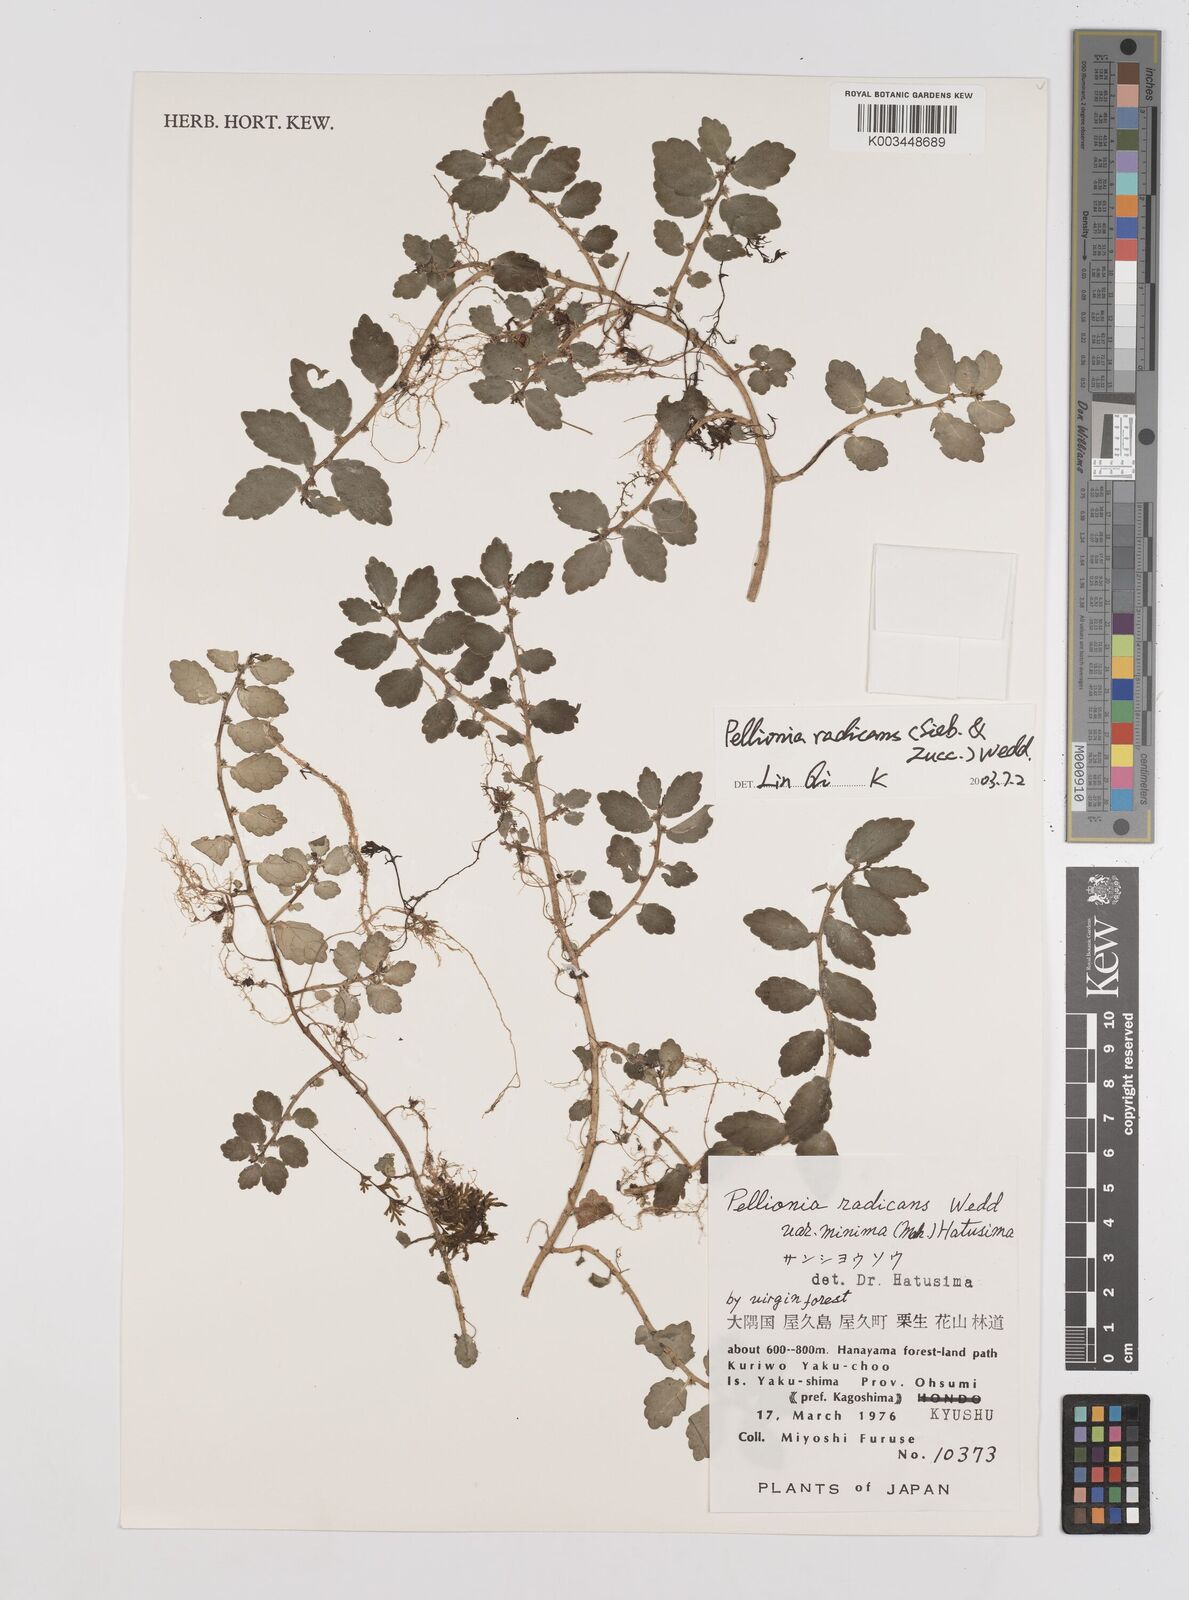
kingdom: Plantae
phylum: Tracheophyta
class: Magnoliopsida
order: Rosales
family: Urticaceae
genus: Elatostema
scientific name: Elatostema radicans
